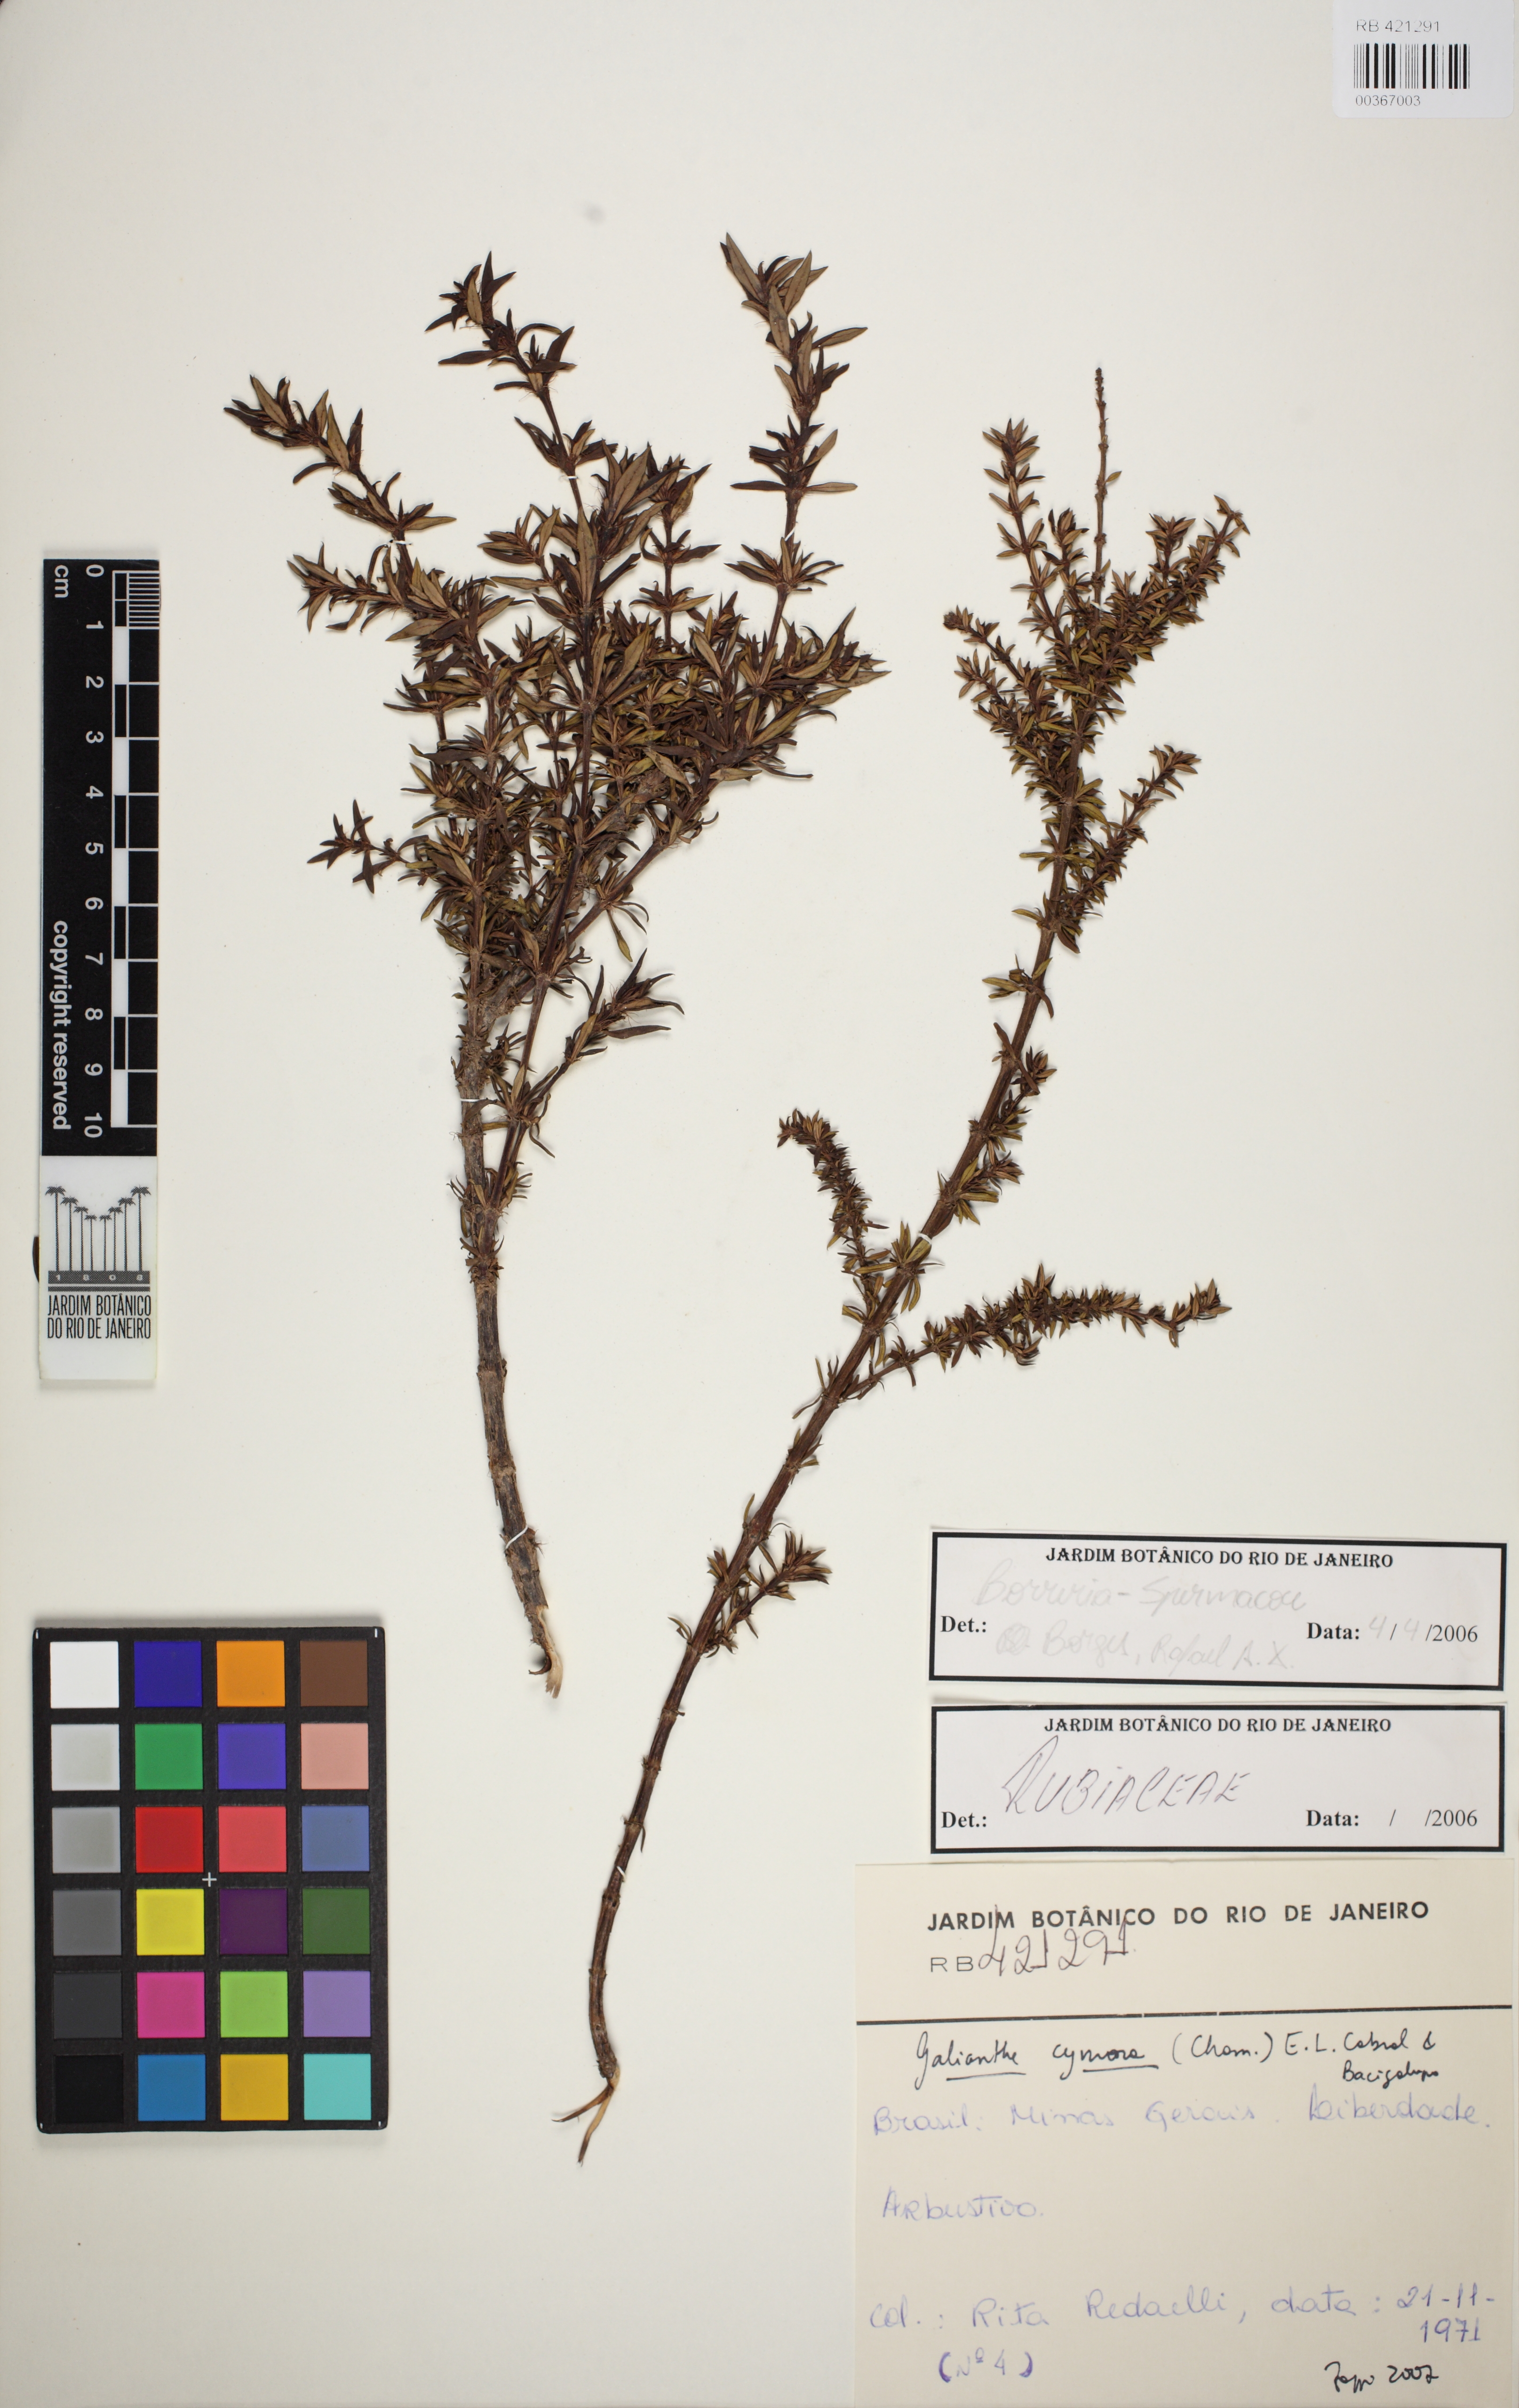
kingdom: Plantae
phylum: Tracheophyta
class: Magnoliopsida
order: Gentianales
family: Rubiaceae
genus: Galianthe
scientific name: Galianthe brasiliensis
